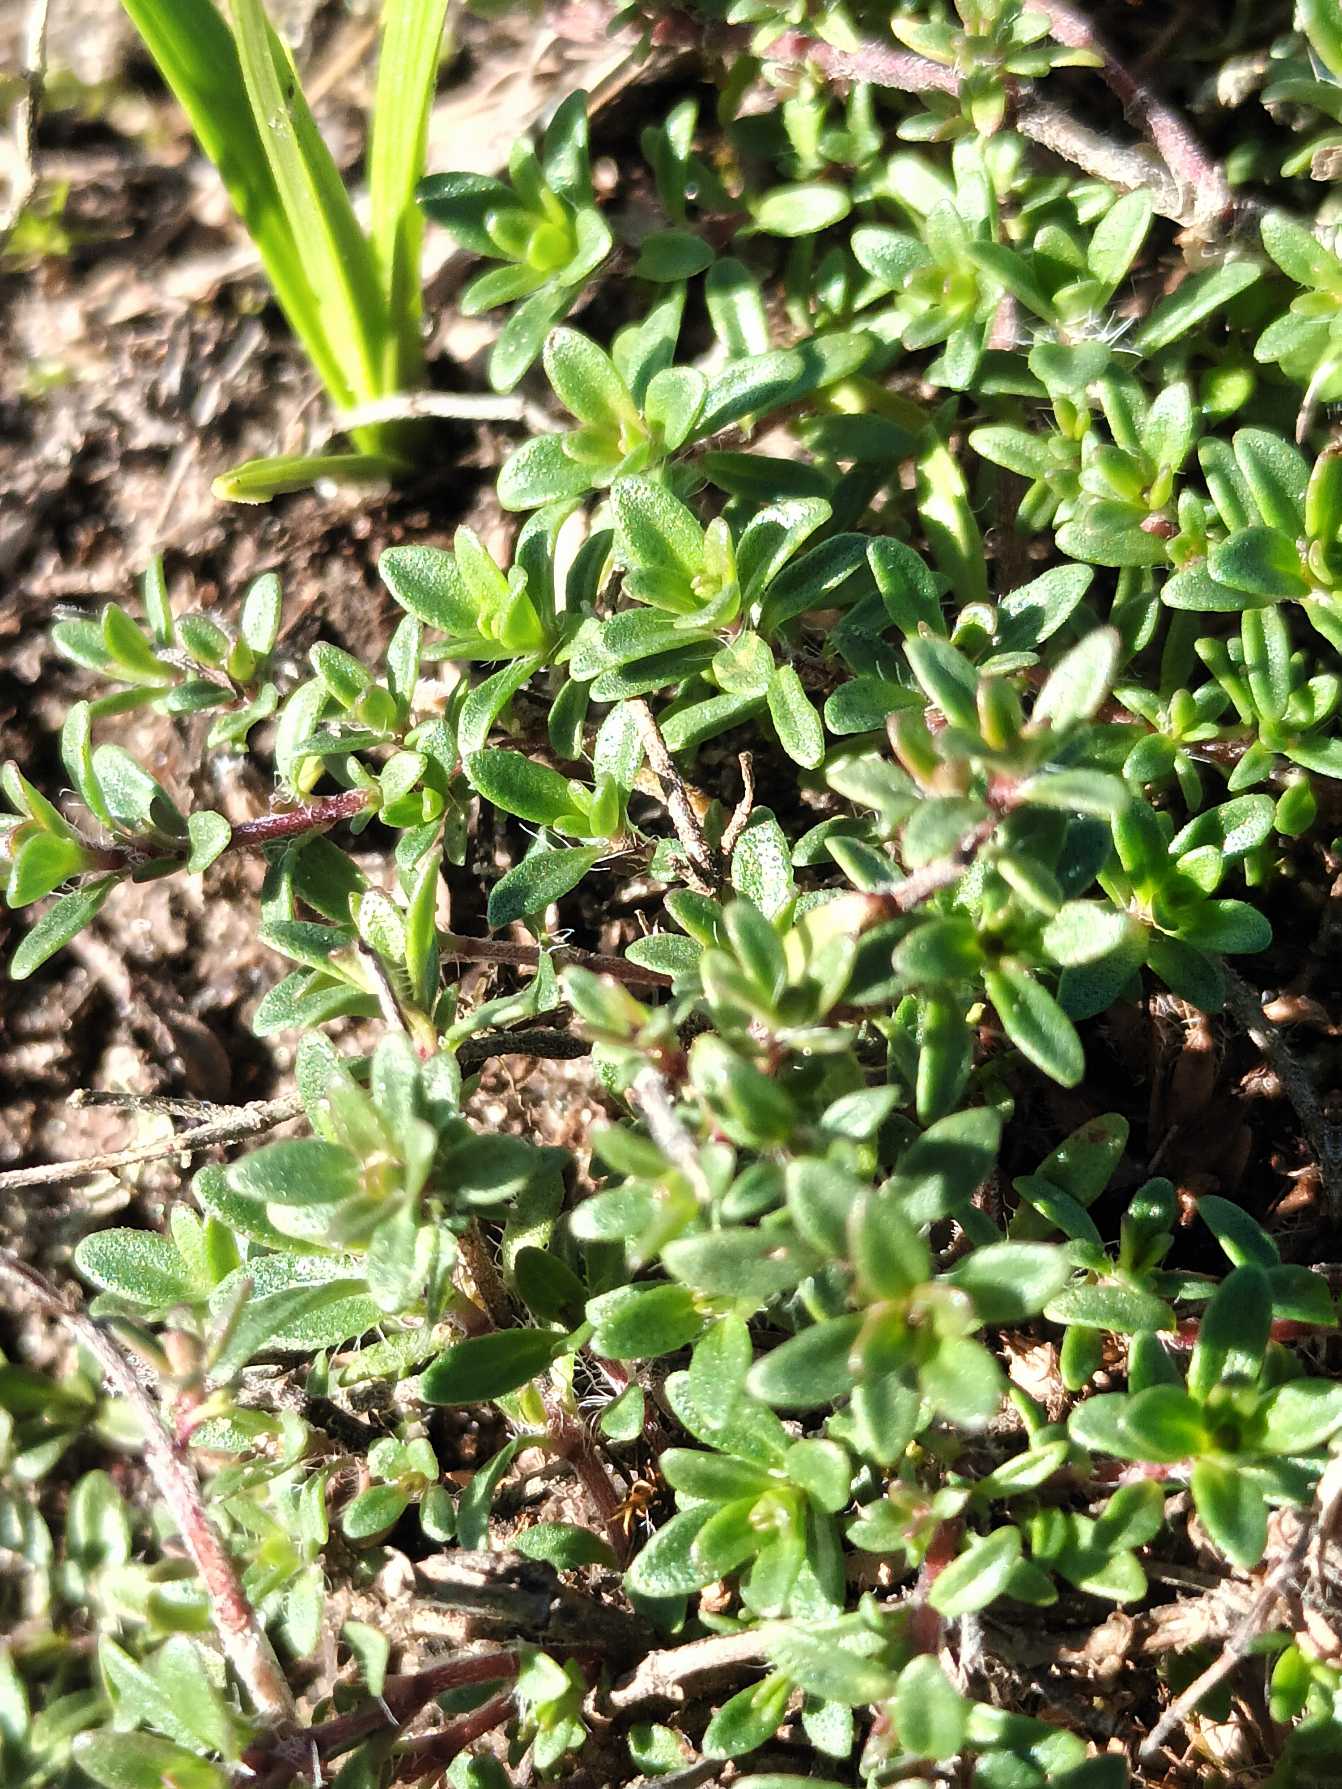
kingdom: Plantae
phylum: Tracheophyta
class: Magnoliopsida
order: Lamiales
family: Lamiaceae
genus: Thymus
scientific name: Thymus serpyllum
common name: Smalbladet timian
